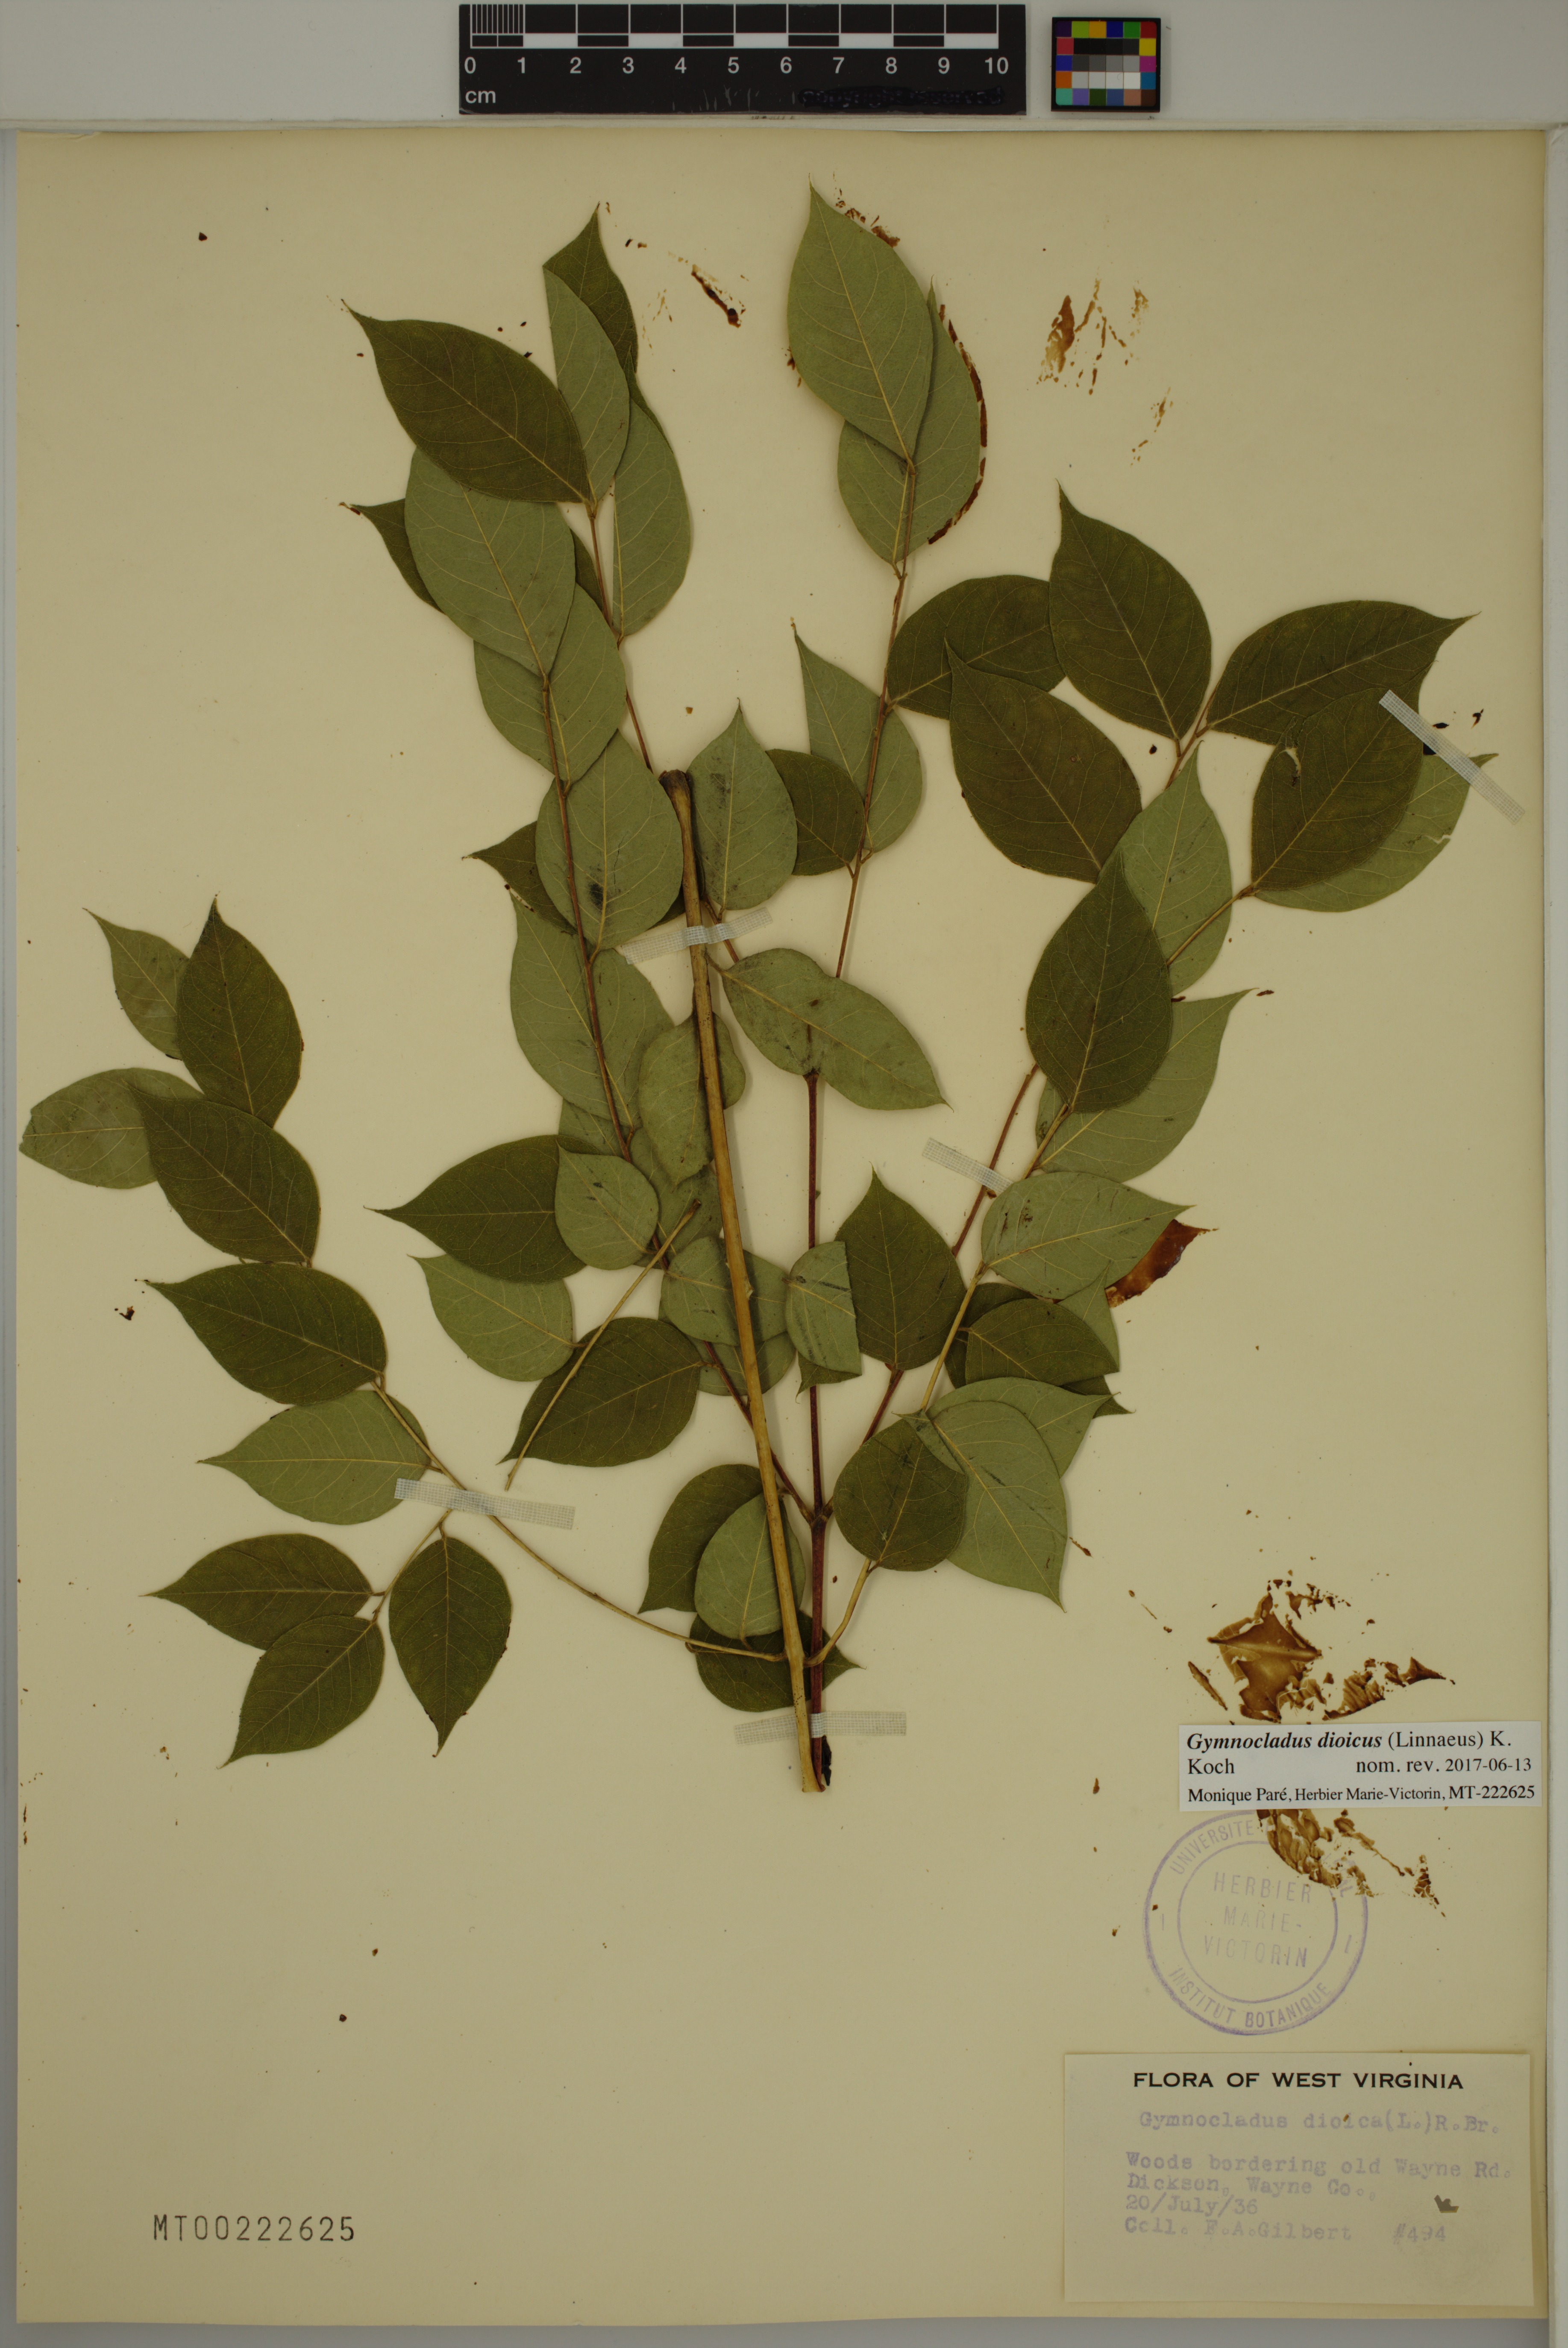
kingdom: Plantae
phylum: Tracheophyta
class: Magnoliopsida
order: Fabales
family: Fabaceae
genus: Gymnocladus
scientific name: Gymnocladus dioicus
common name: Kentucky coffee-tree
